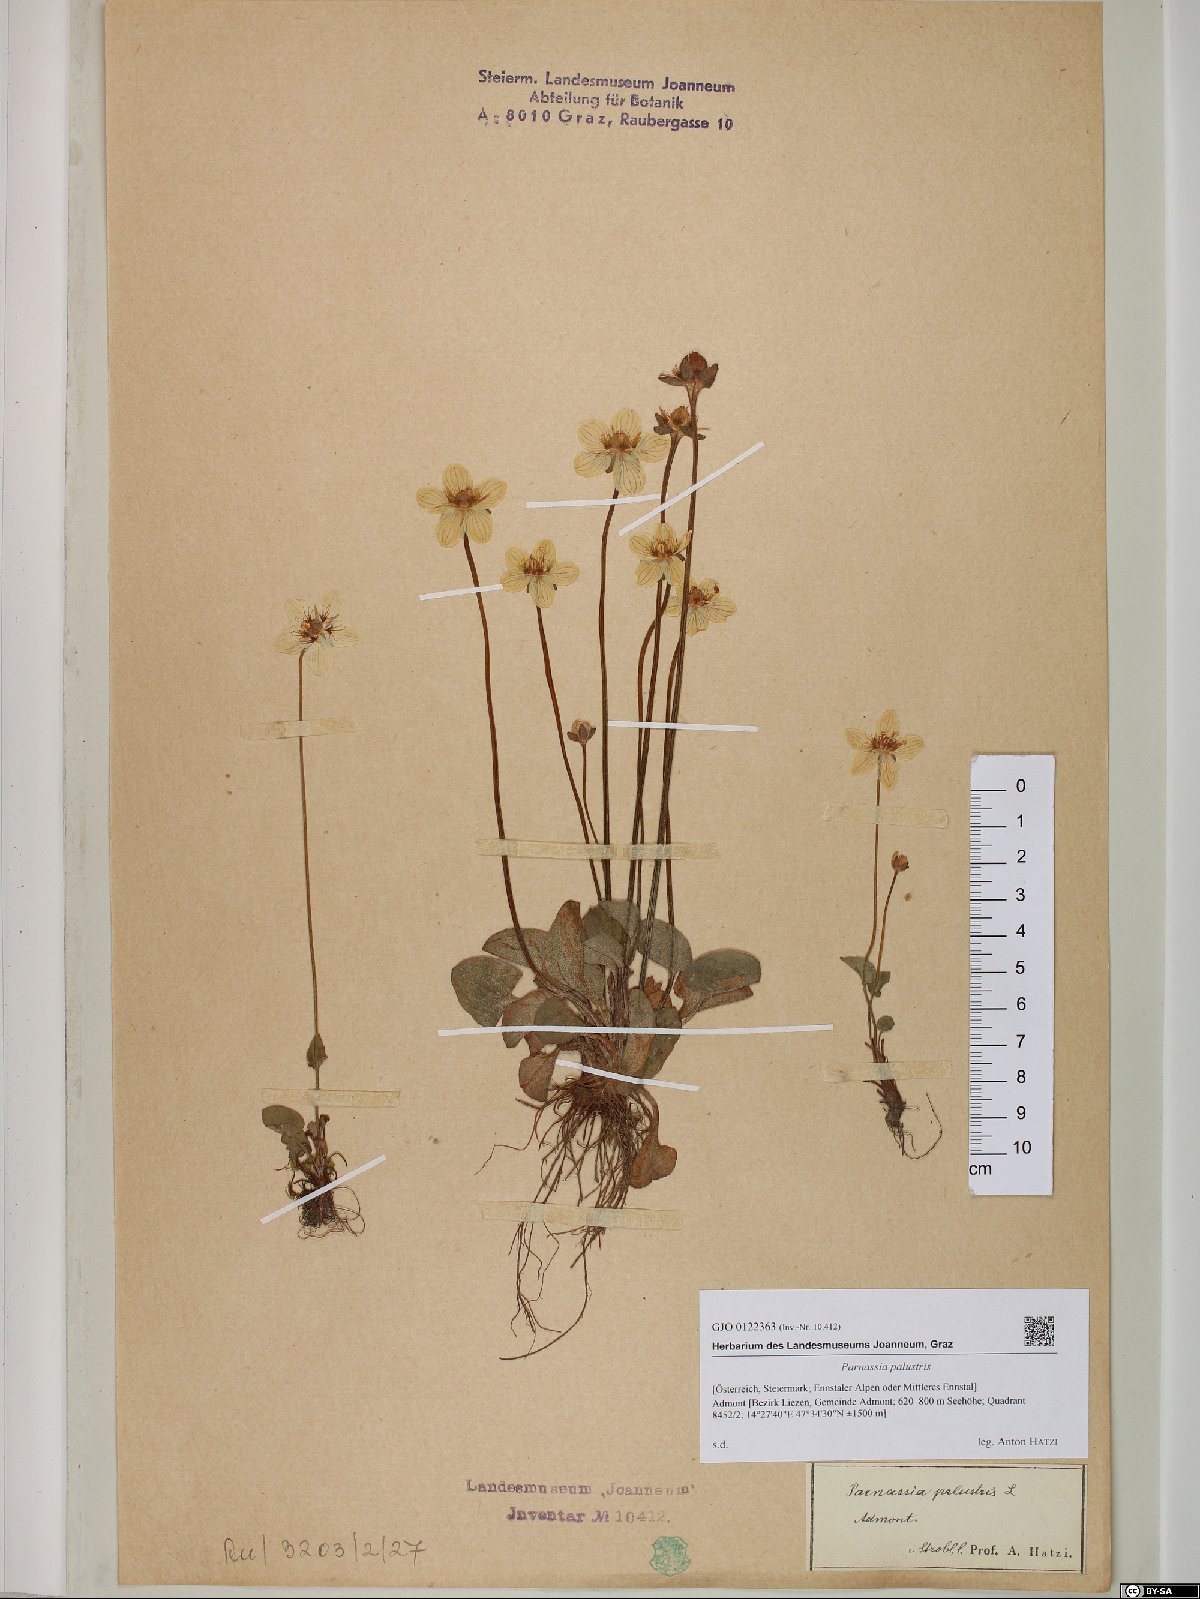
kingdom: Plantae
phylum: Tracheophyta
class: Magnoliopsida
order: Celastrales
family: Parnassiaceae
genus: Parnassia
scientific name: Parnassia palustris
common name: Grass-of-parnassus
